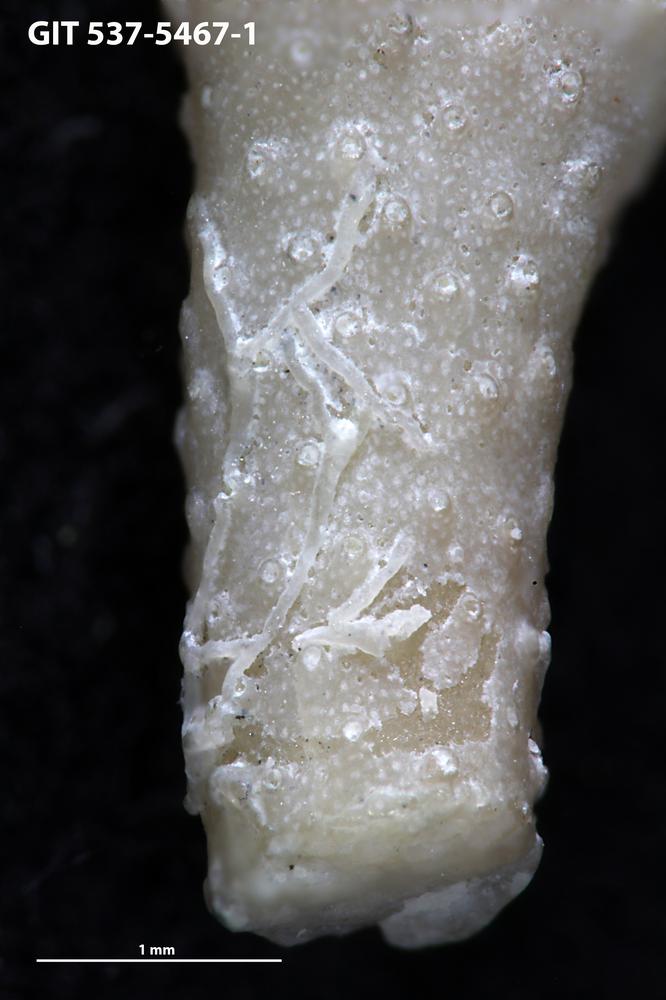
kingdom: Animalia
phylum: Bryozoa
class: Stenolaemata
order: Cyclostomatida
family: Corynotrypidae
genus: Corynotrypa
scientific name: Corynotrypa
